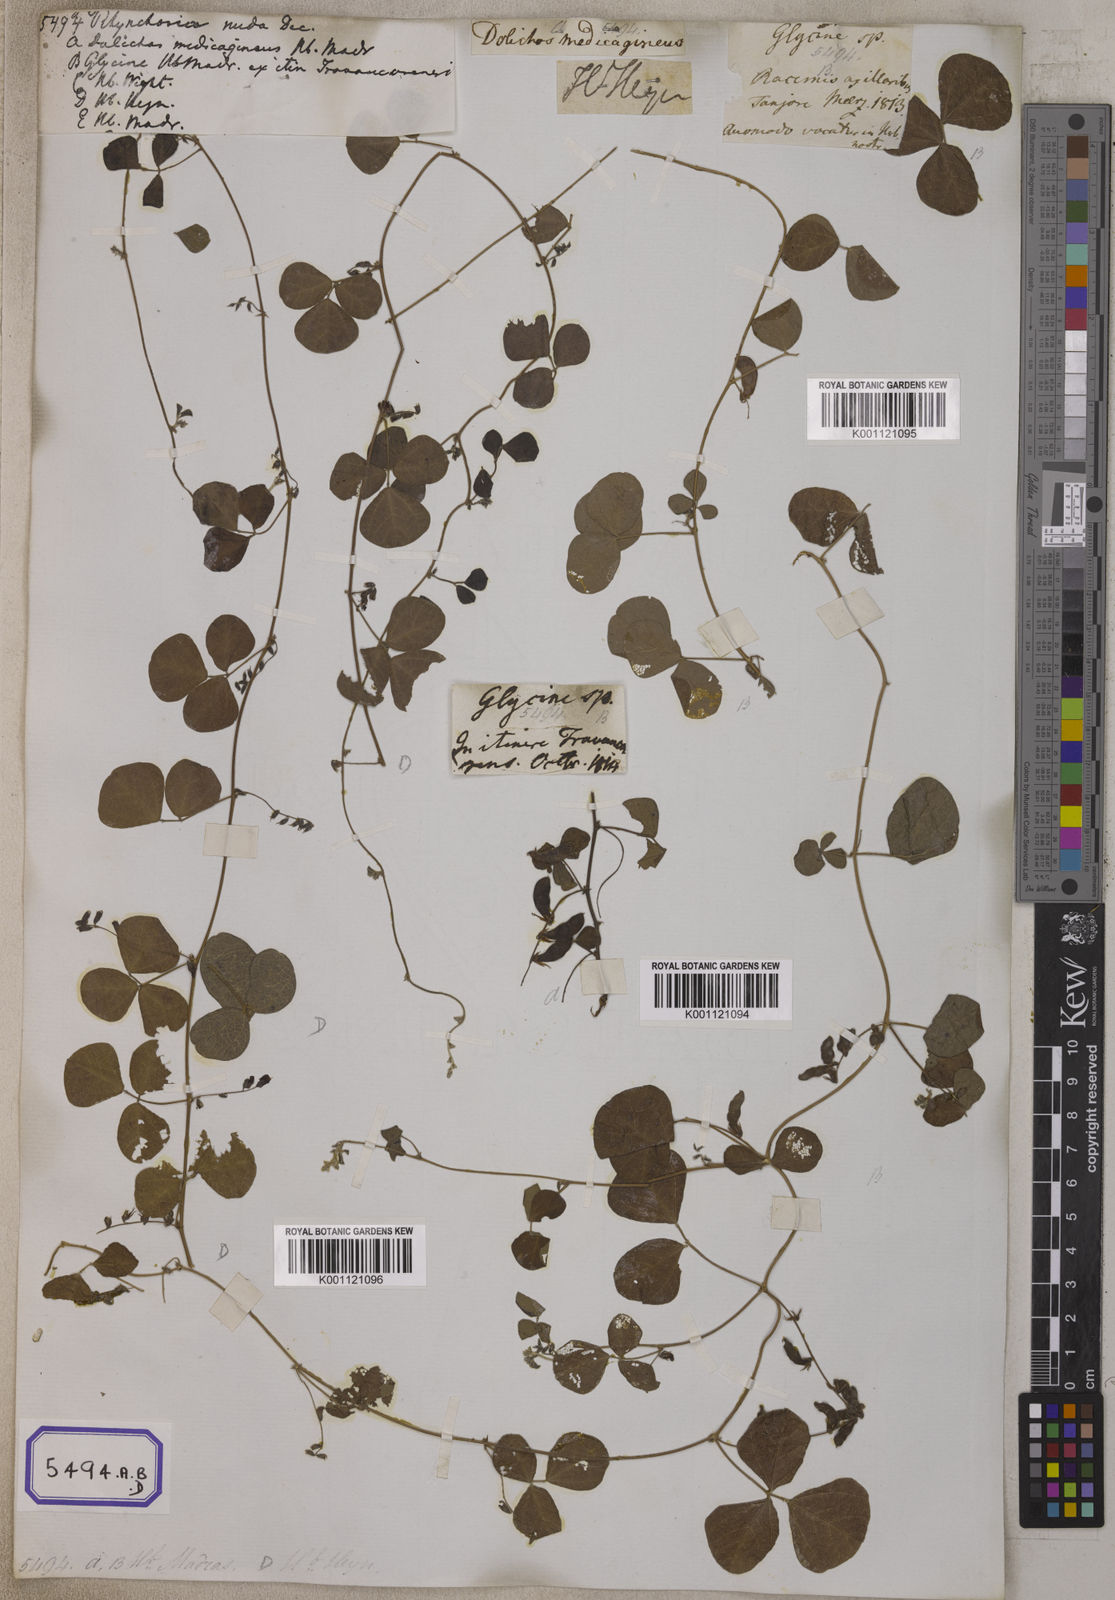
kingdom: Plantae
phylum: Tracheophyta
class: Magnoliopsida
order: Fabales
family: Fabaceae
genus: Rhynchosia
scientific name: Rhynchosia minima
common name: Least snoutbean
